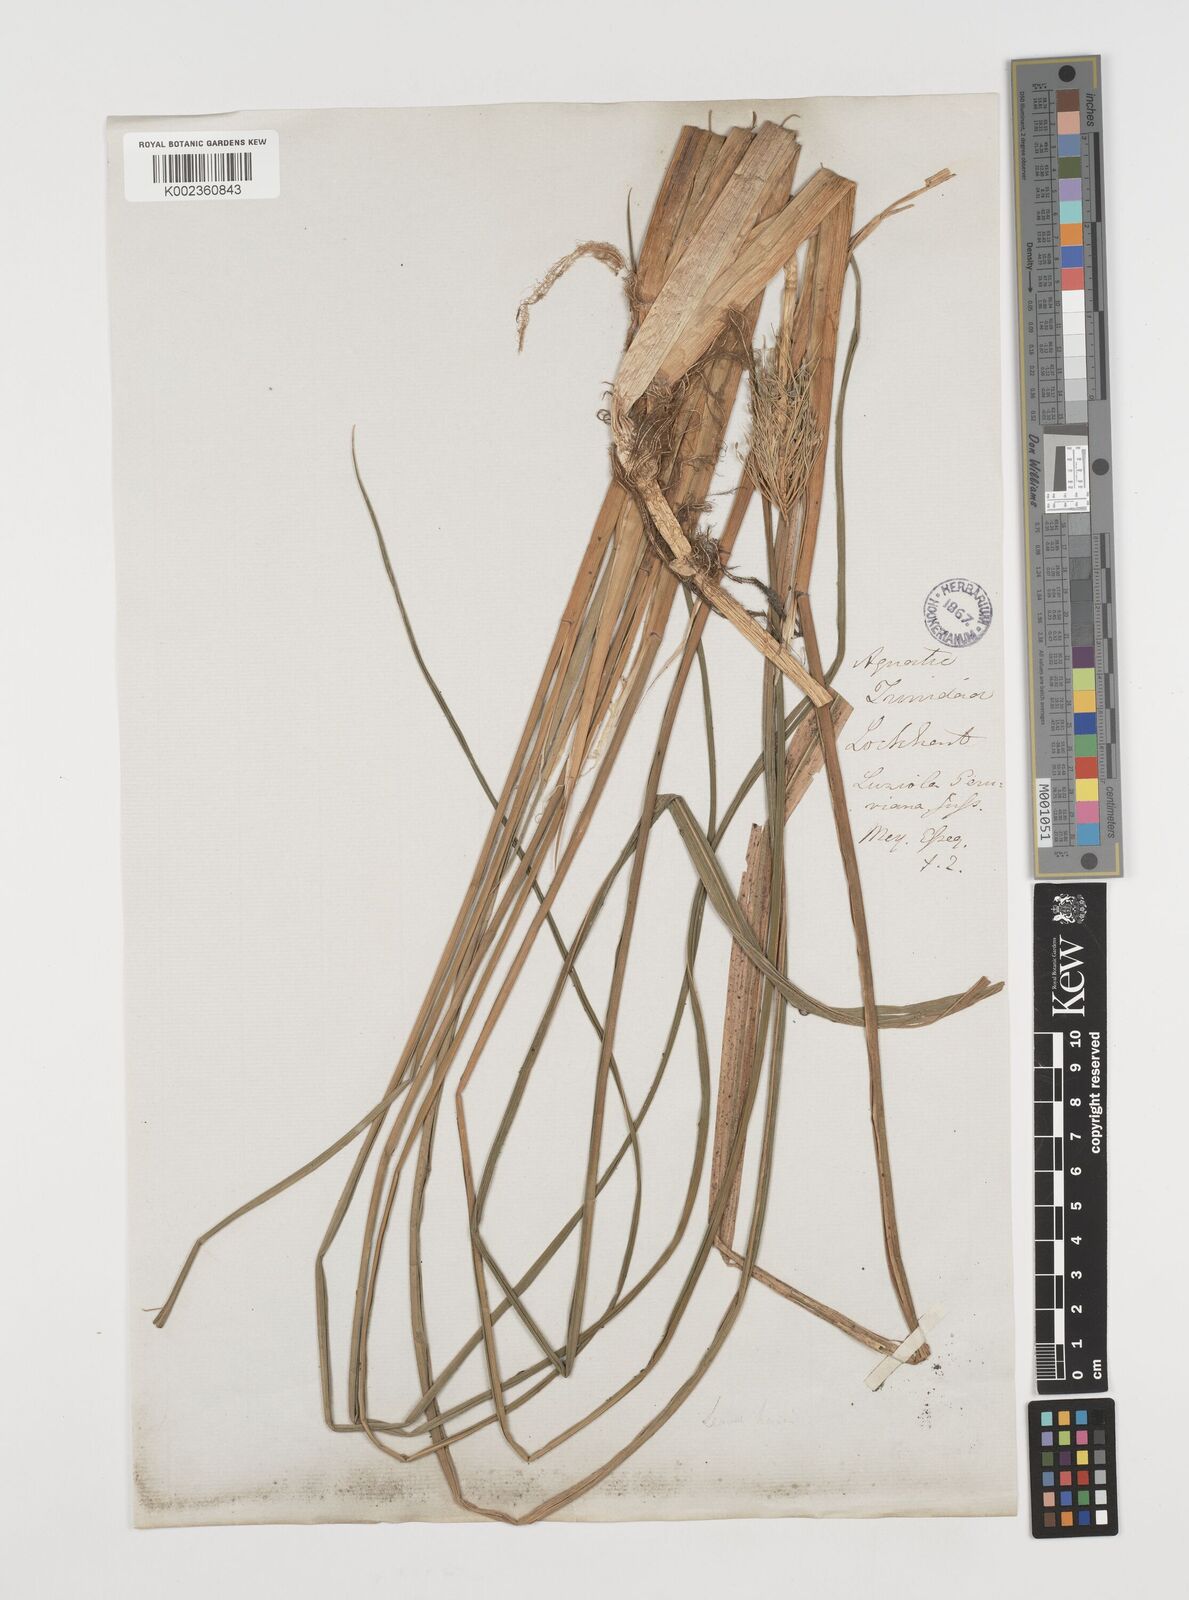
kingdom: Plantae
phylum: Tracheophyta
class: Liliopsida
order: Poales
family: Poaceae
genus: Luziola
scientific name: Luziola subintegra
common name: Large watergrass
